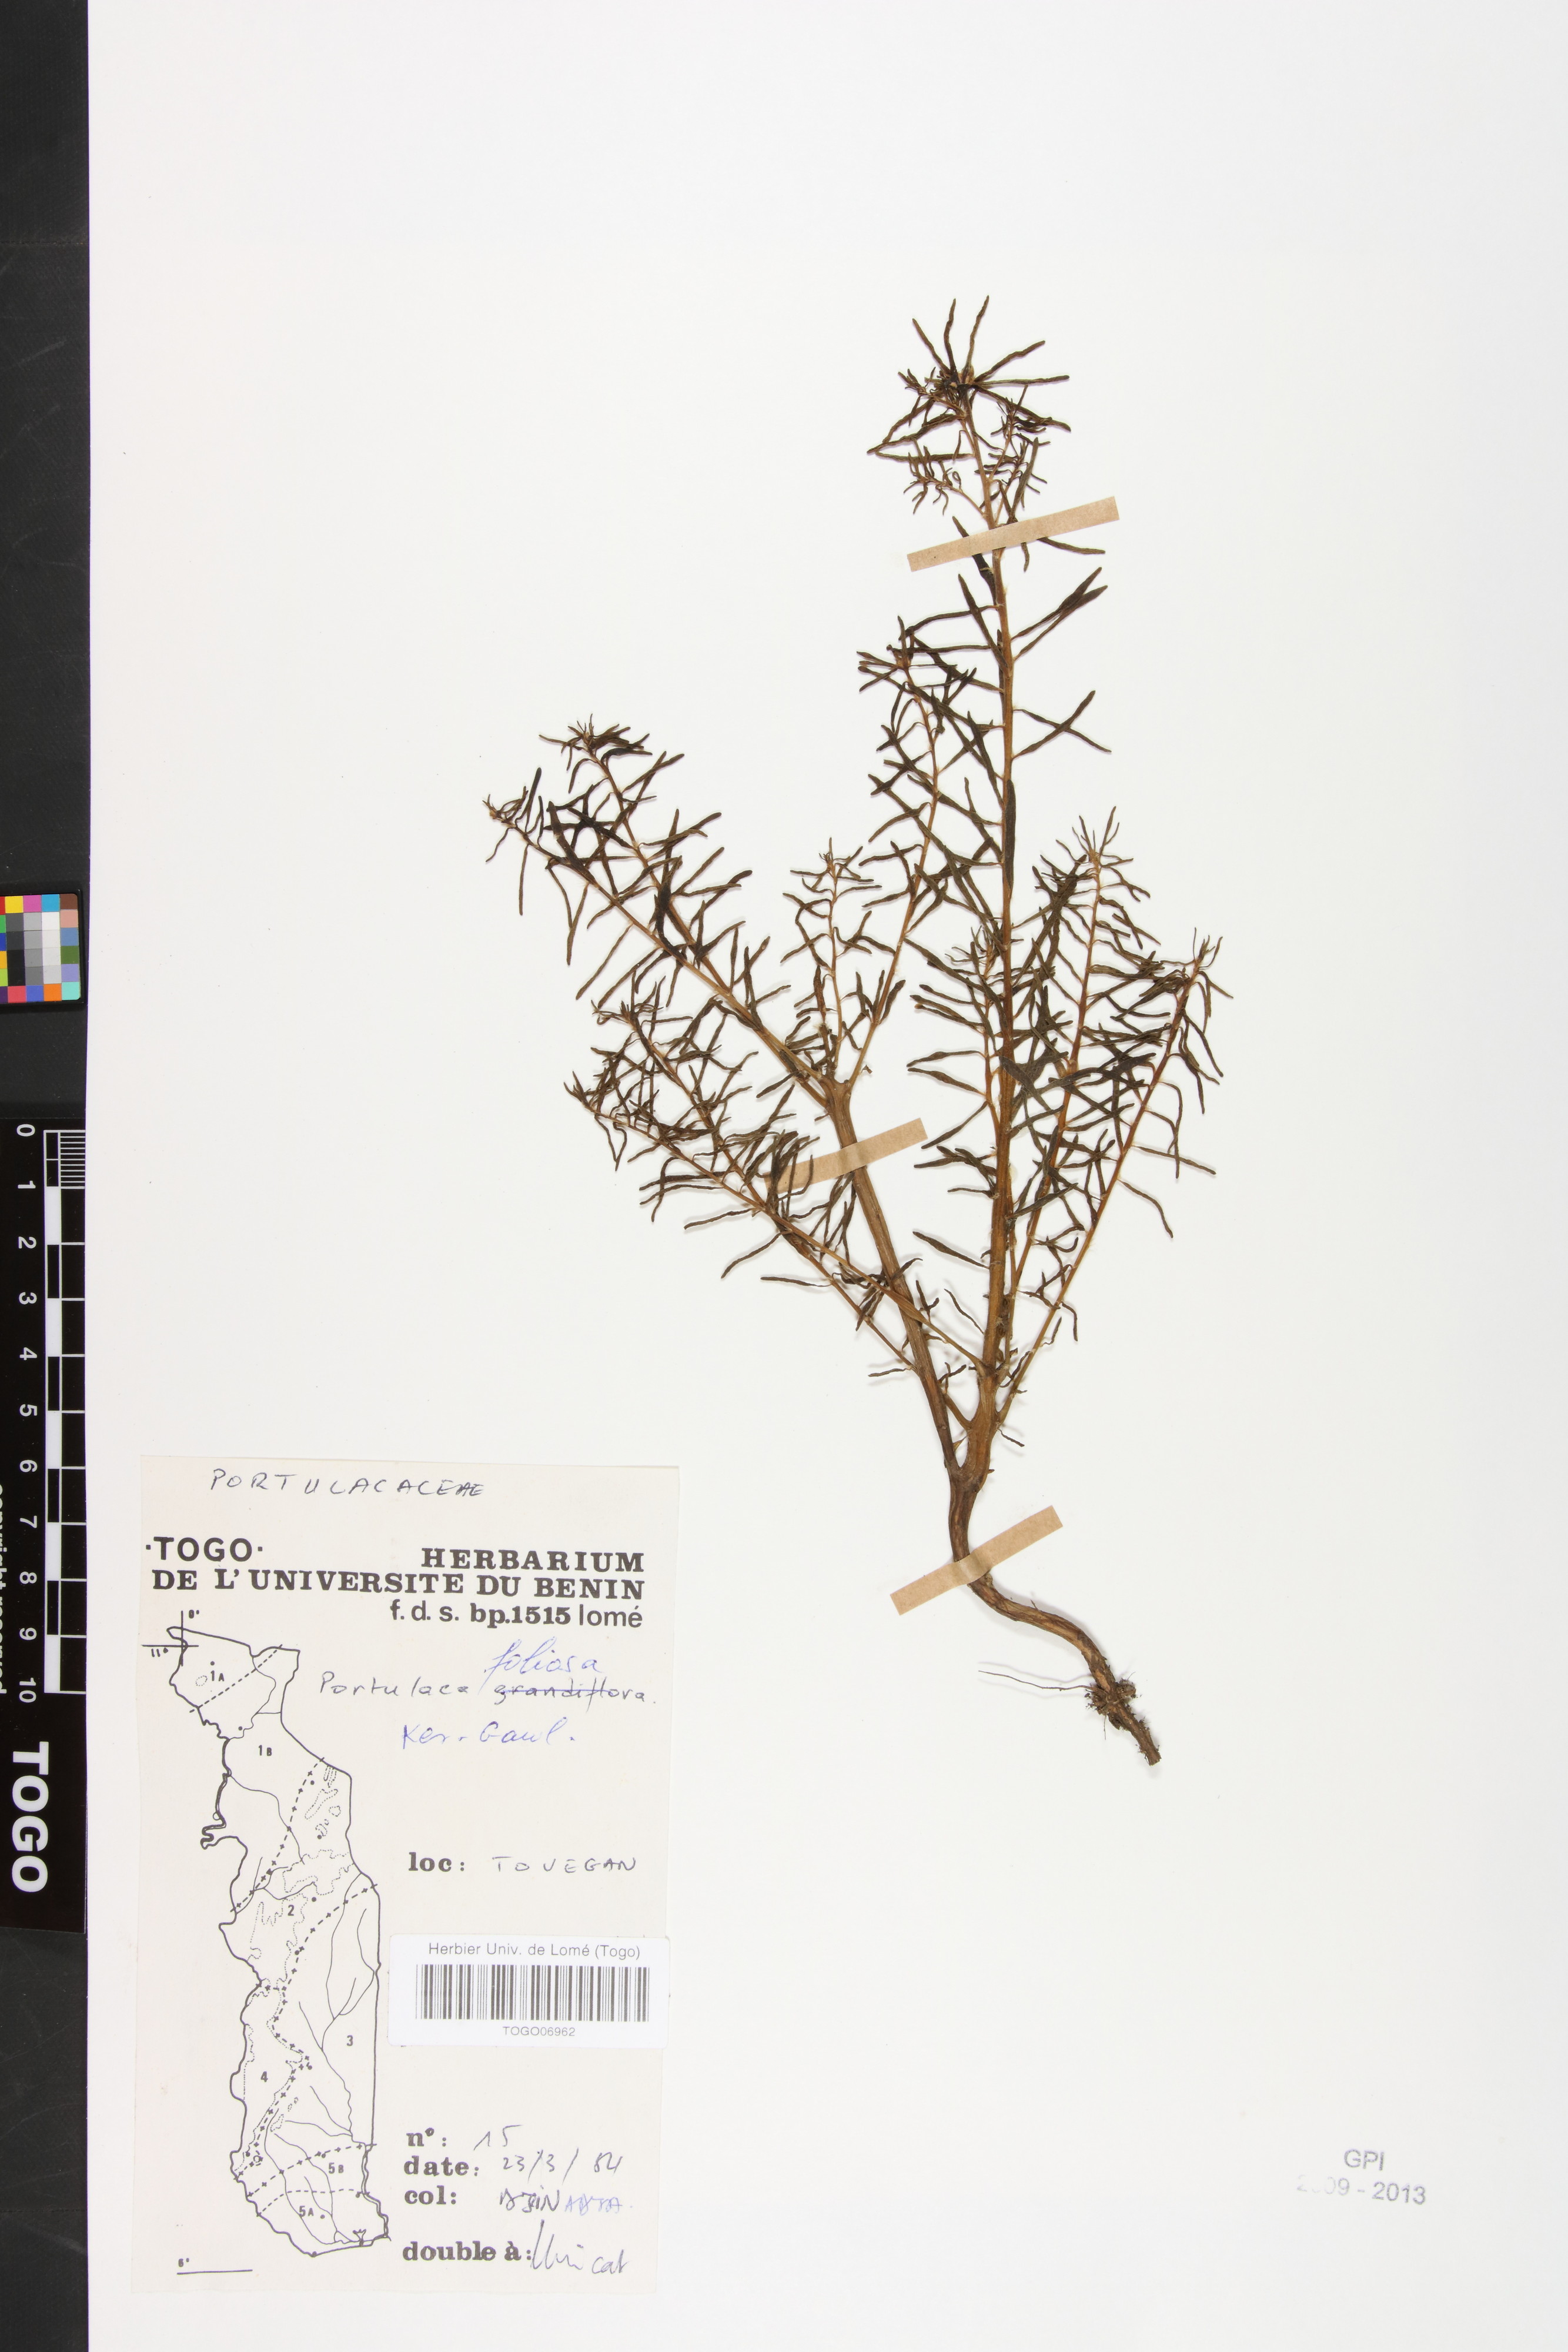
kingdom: Plantae
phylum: Tracheophyta
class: Magnoliopsida
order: Caryophyllales
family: Portulacaceae
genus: Portulaca
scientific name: Portulaca foliosa
